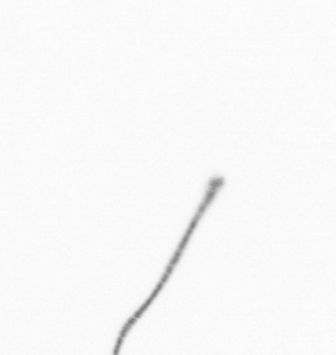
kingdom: Chromista
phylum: Ochrophyta
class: Bacillariophyceae
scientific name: Bacillariophyceae
